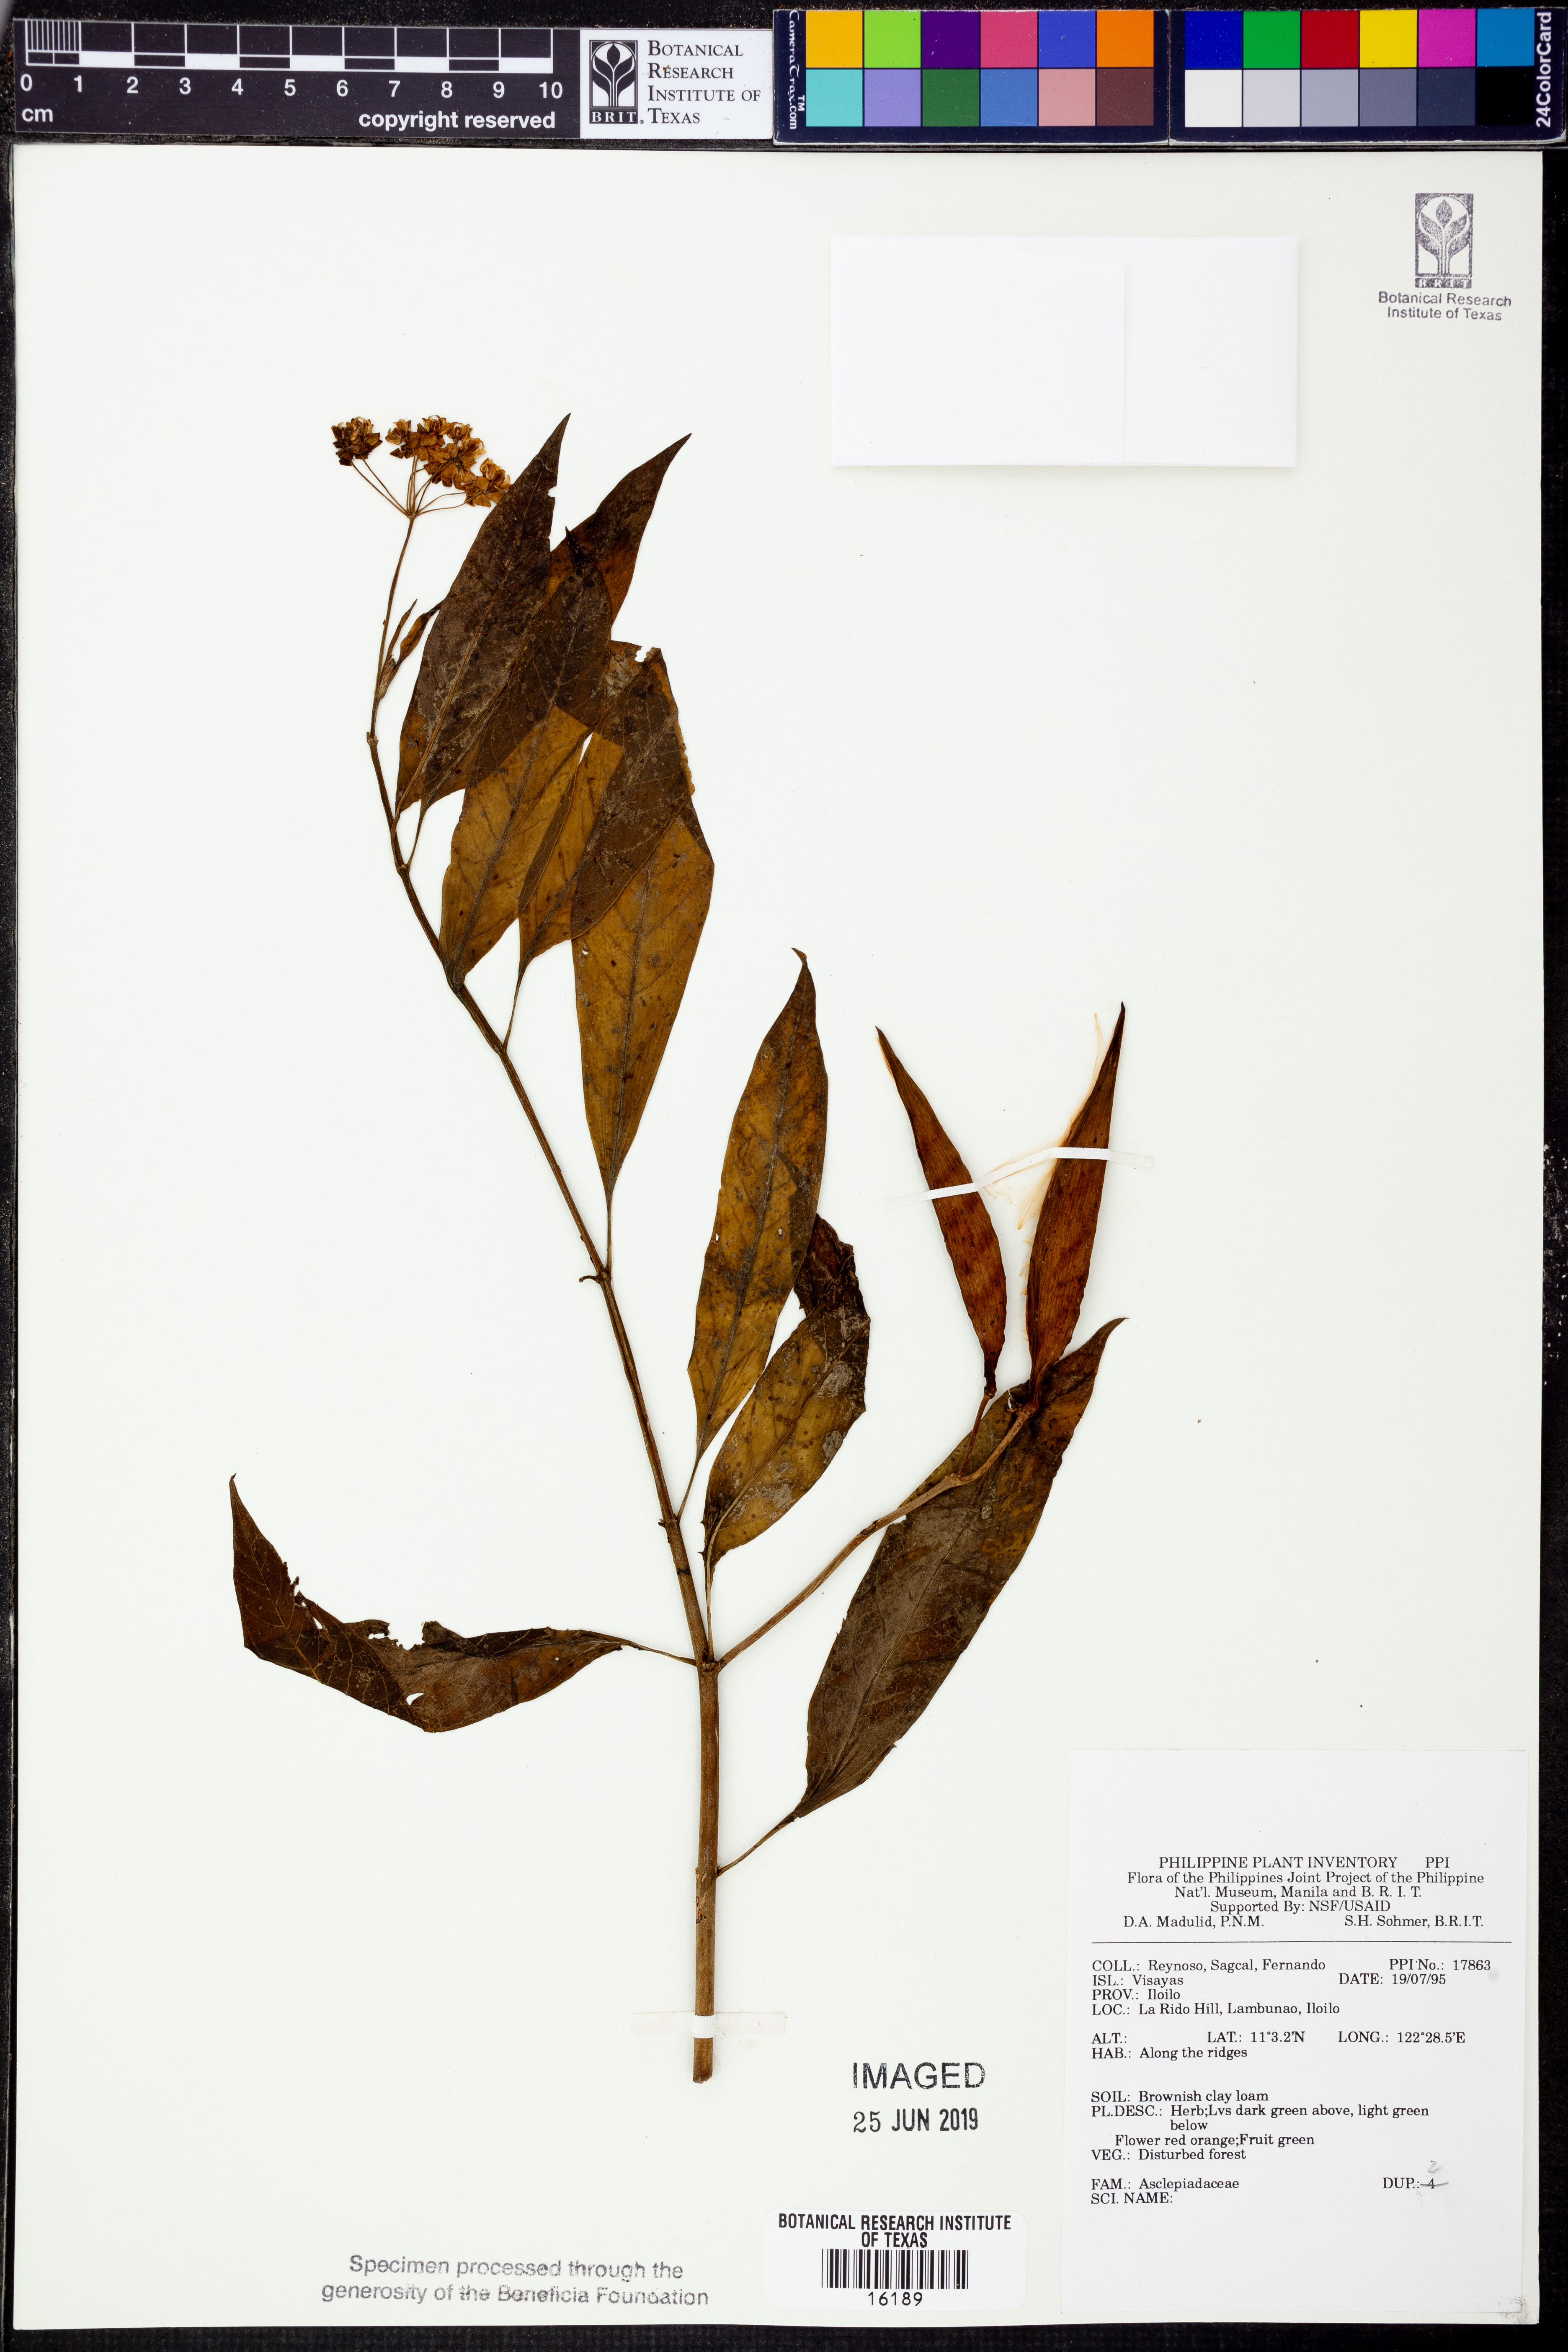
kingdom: Plantae
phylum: Tracheophyta
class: Magnoliopsida
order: Gentianales
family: Apocynaceae
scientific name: Apocynaceae
